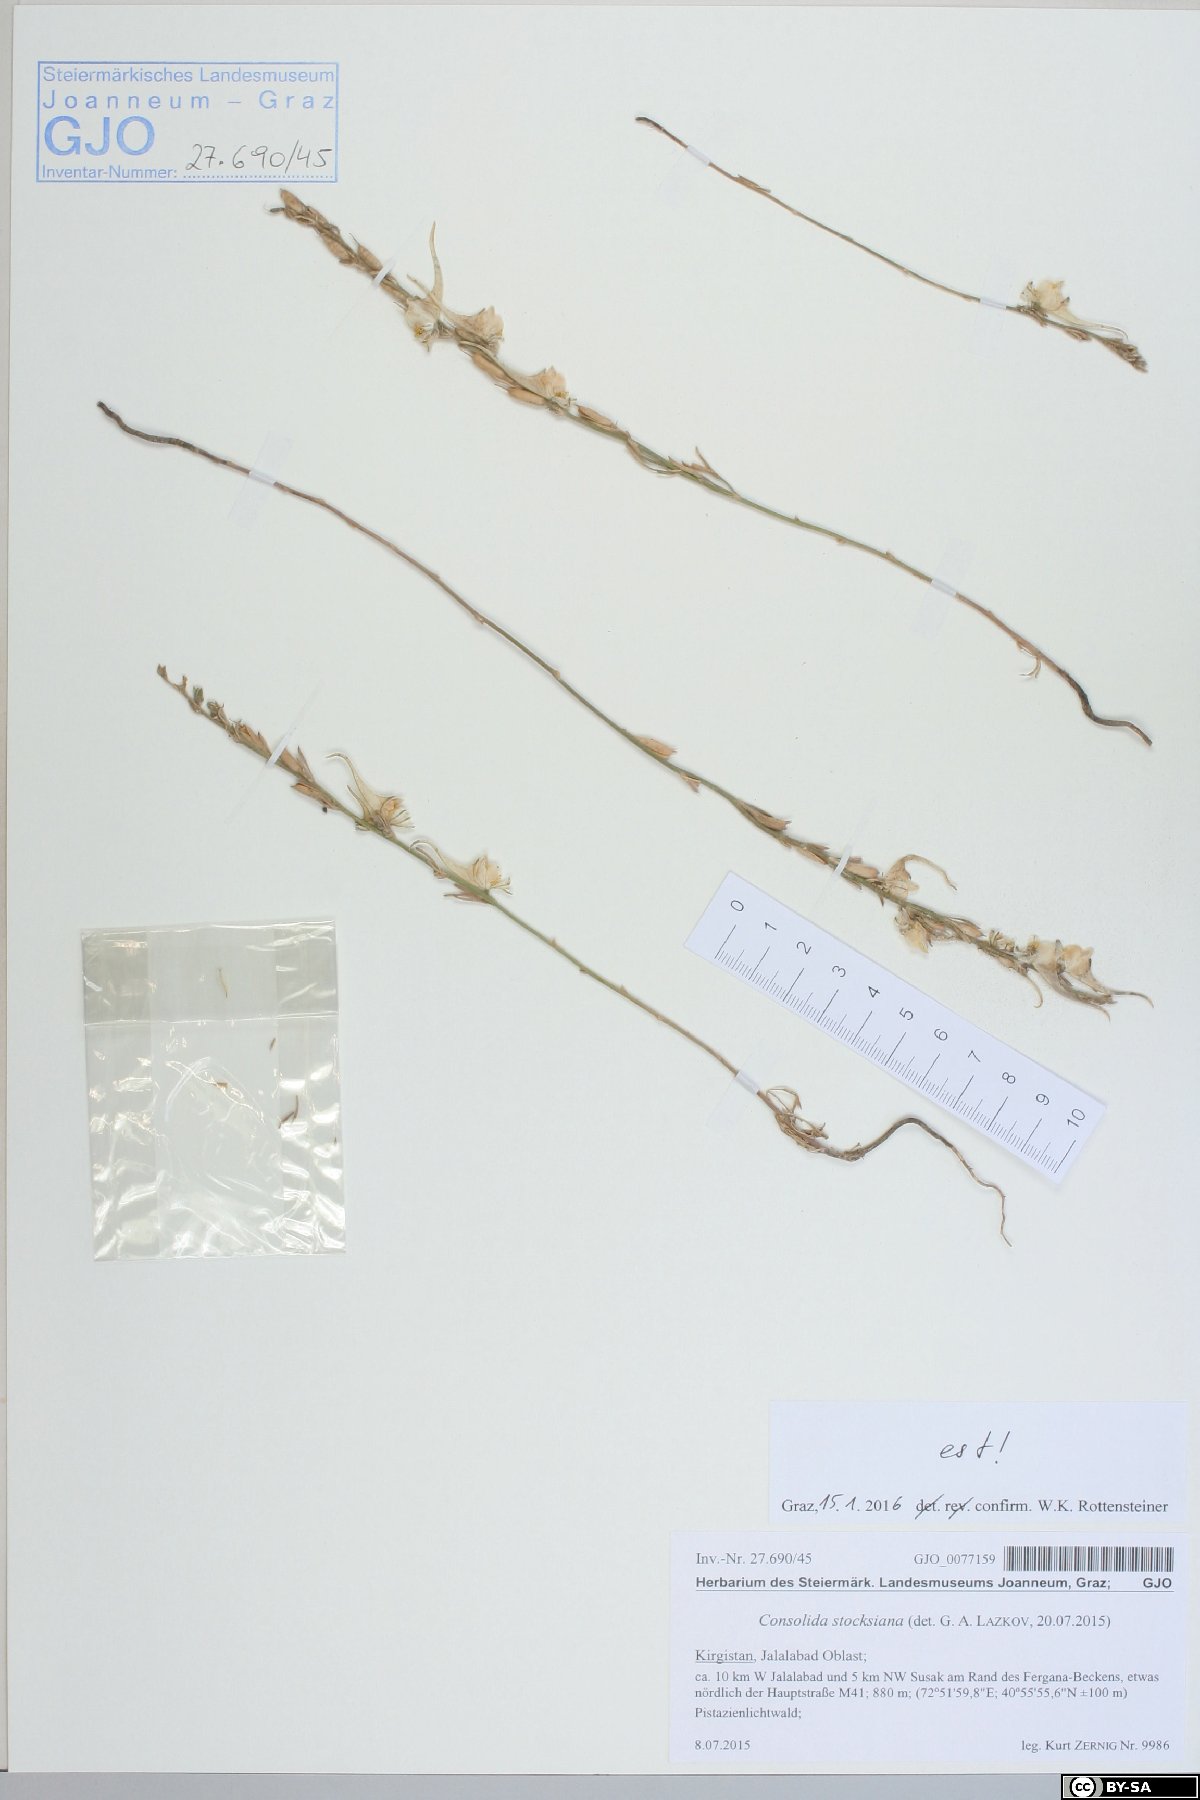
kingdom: Plantae
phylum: Tracheophyta
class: Magnoliopsida
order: Ranunculales
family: Ranunculaceae
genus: Delphinium
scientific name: Delphinium stocksianum
